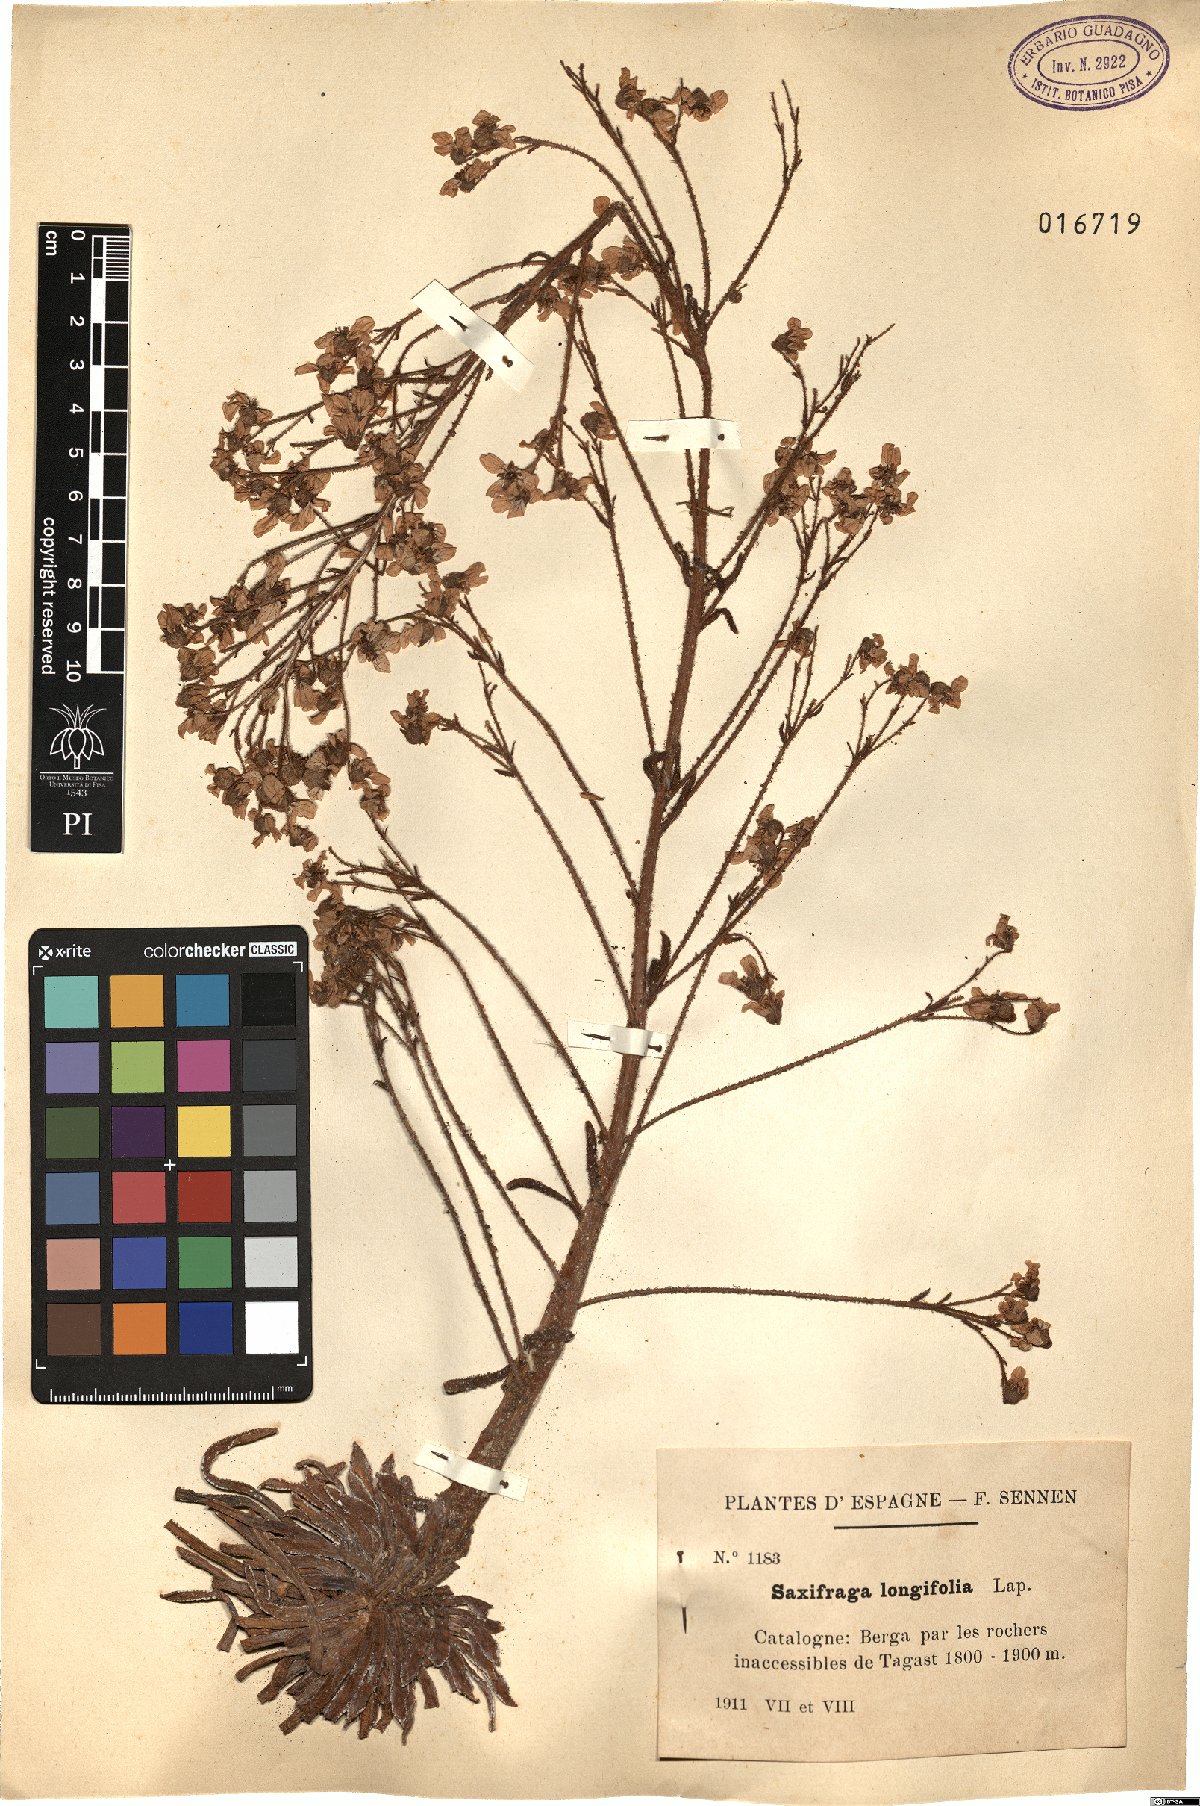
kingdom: Plantae
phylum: Tracheophyta
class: Magnoliopsida
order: Saxifragales
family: Saxifragaceae
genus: Saxifraga
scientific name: Saxifraga longifolia
